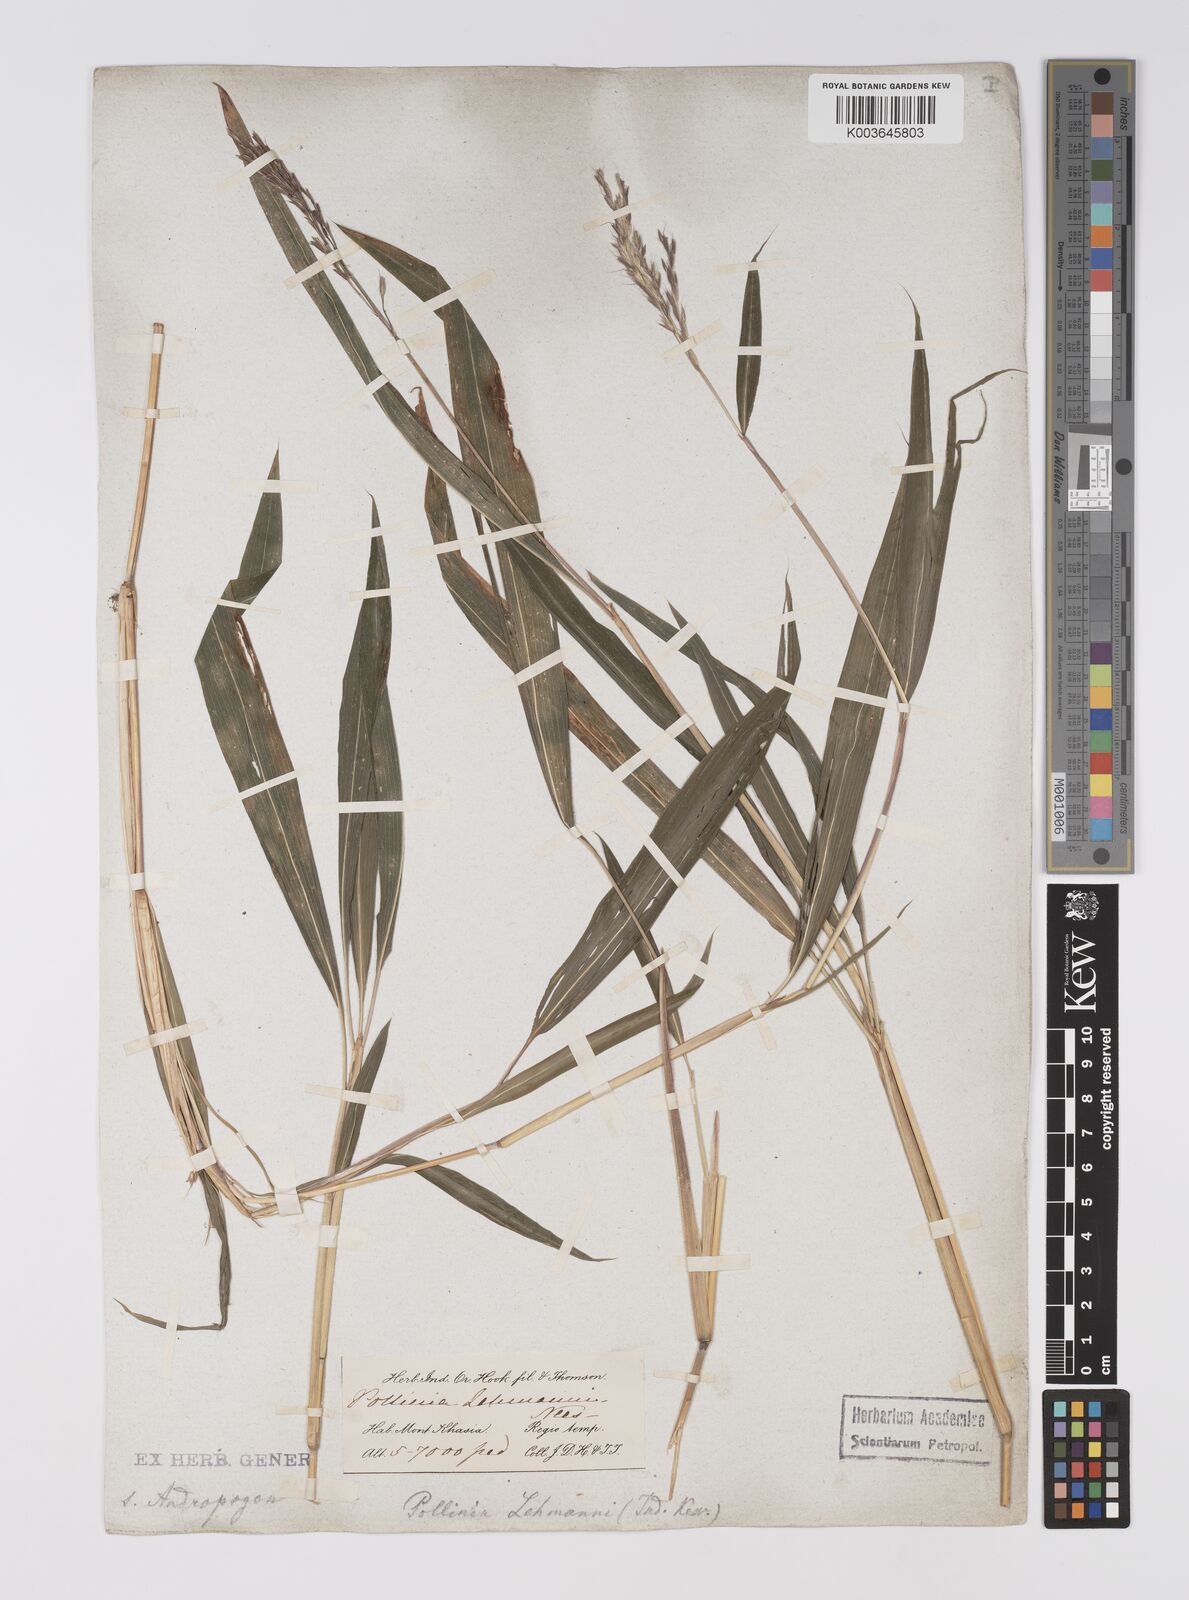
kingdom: Plantae
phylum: Tracheophyta
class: Liliopsida
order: Poales
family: Poaceae
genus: Microstegium
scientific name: Microstegium petiolare
